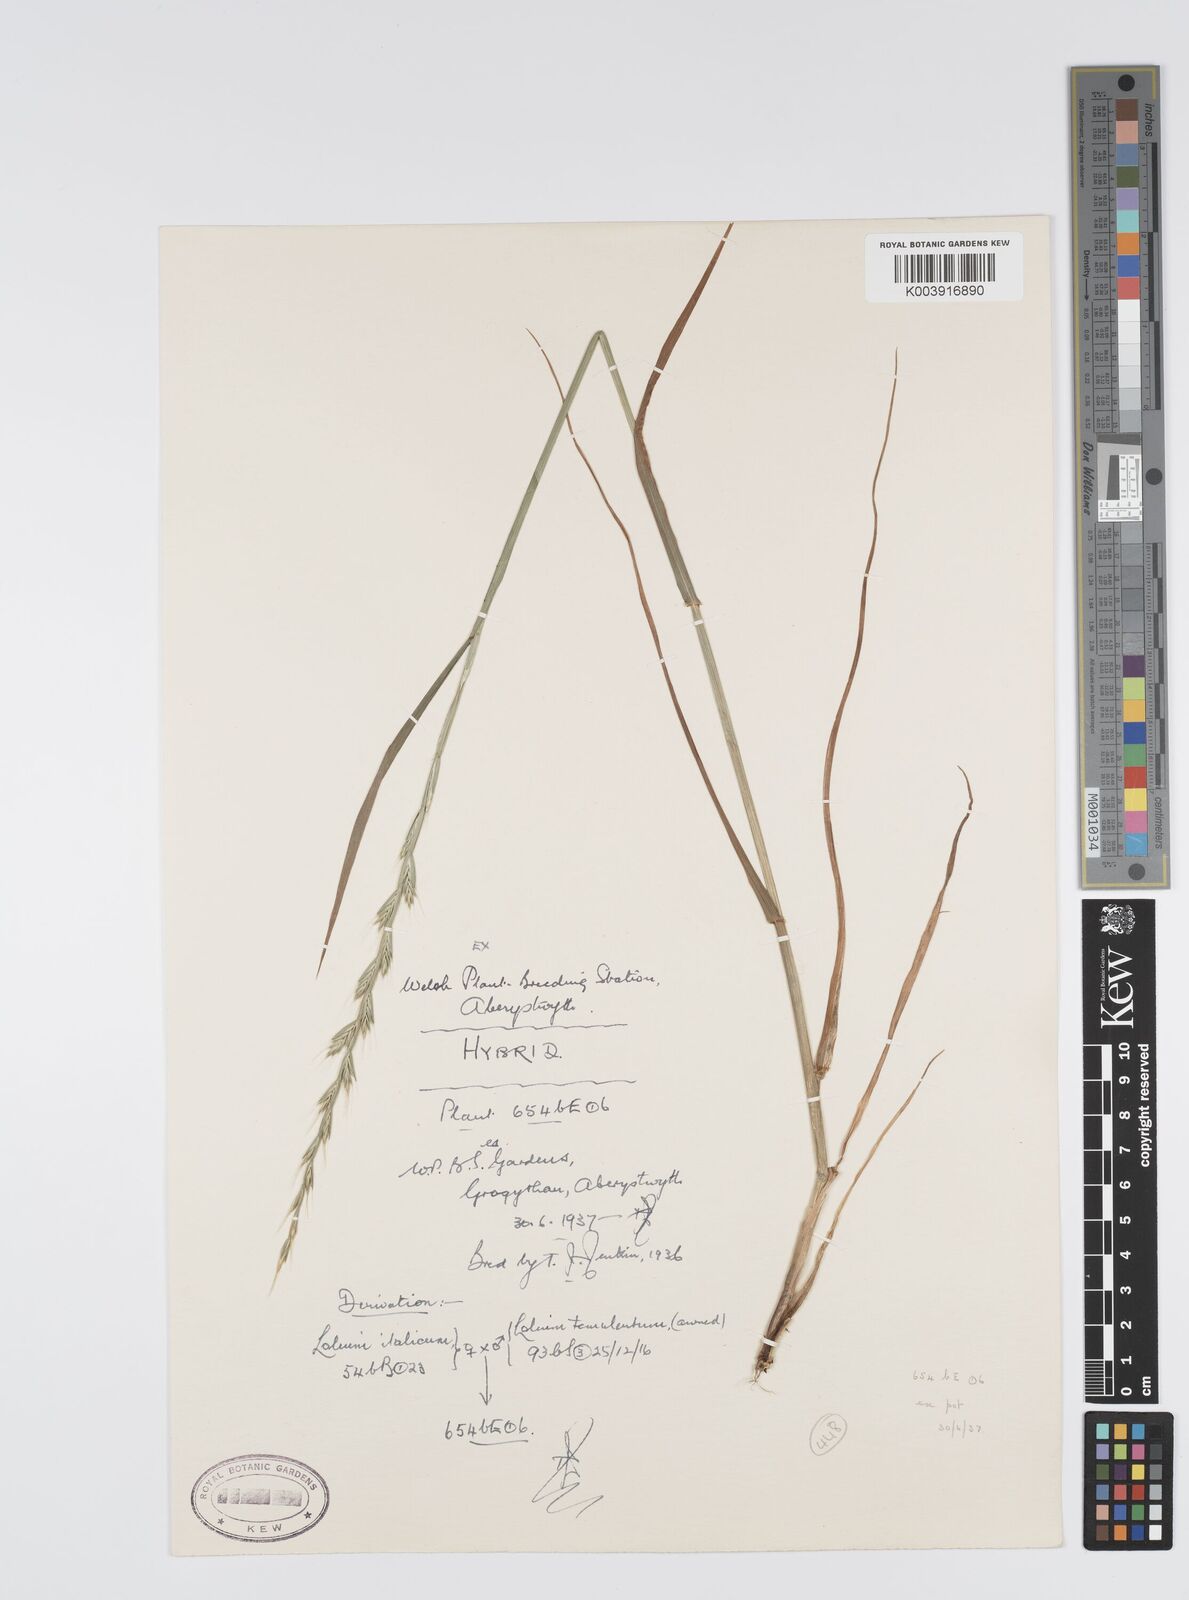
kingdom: Plantae
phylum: Tracheophyta
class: Liliopsida
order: Poales
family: Poaceae
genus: Lolium
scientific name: Lolium multiflorum
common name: Annual ryegrass
